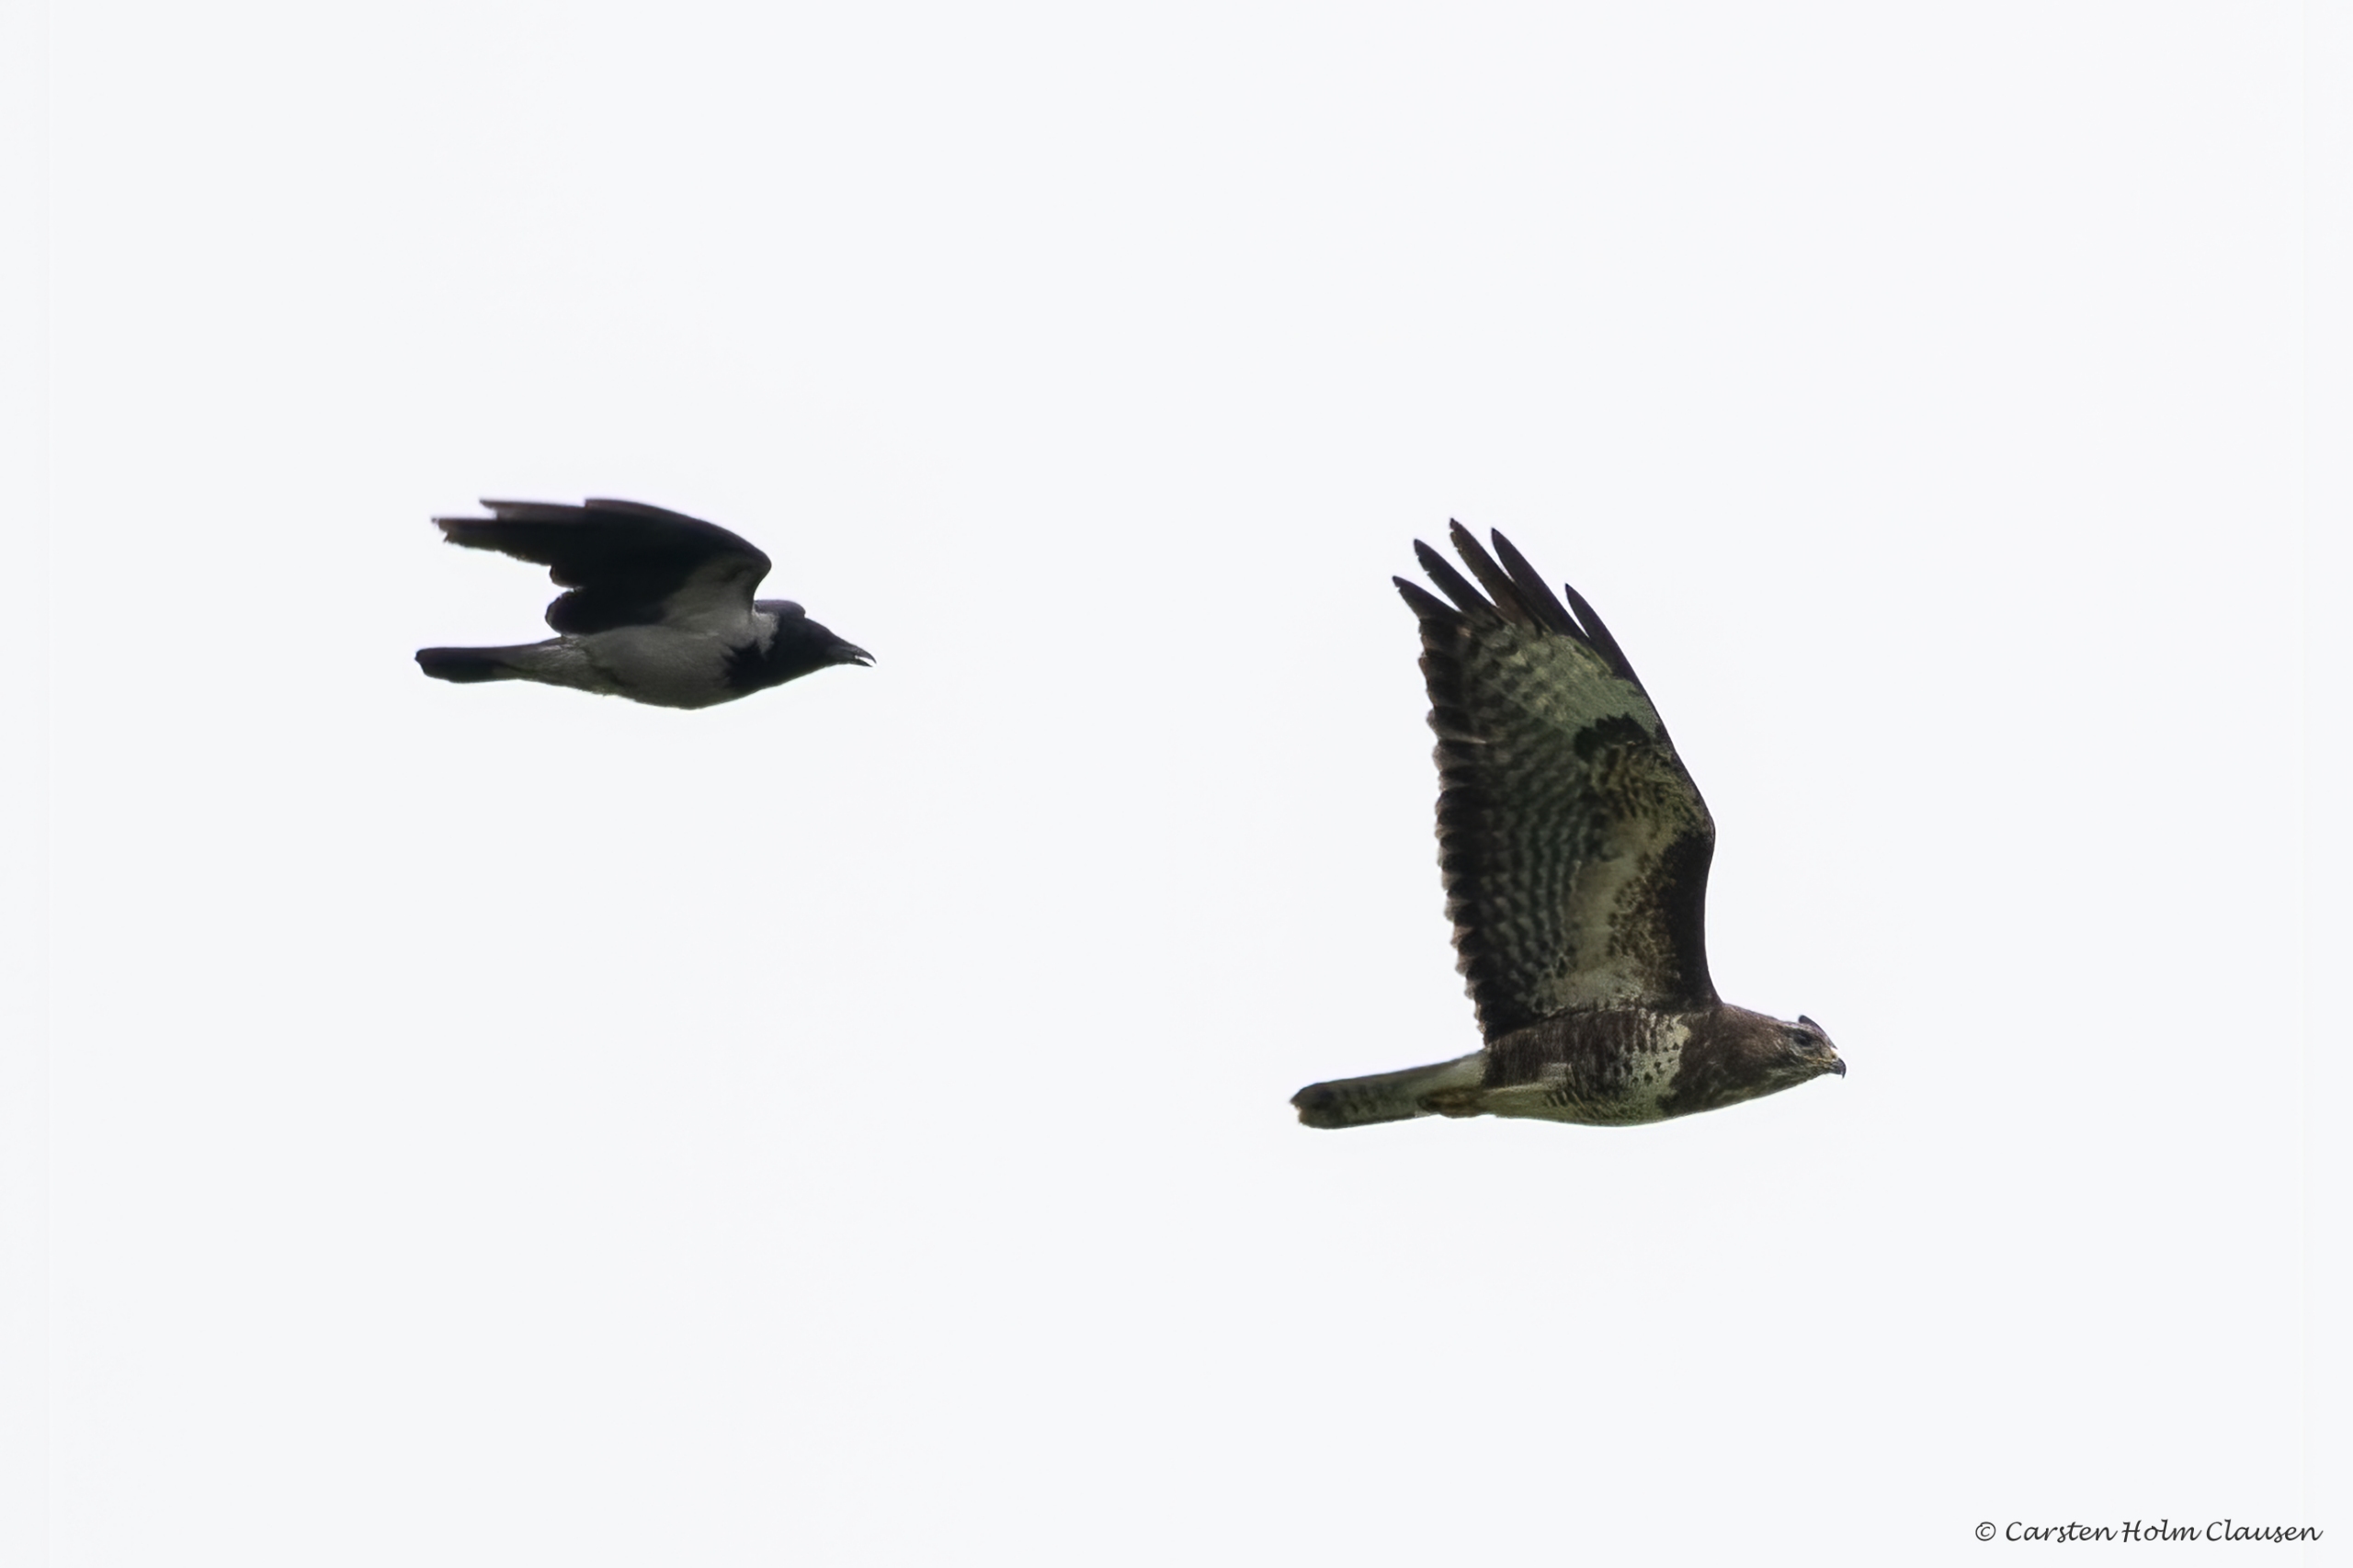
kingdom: Animalia
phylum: Chordata
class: Aves
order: Accipitriformes
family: Accipitridae
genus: Buteo
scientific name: Buteo buteo
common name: Musvåge
